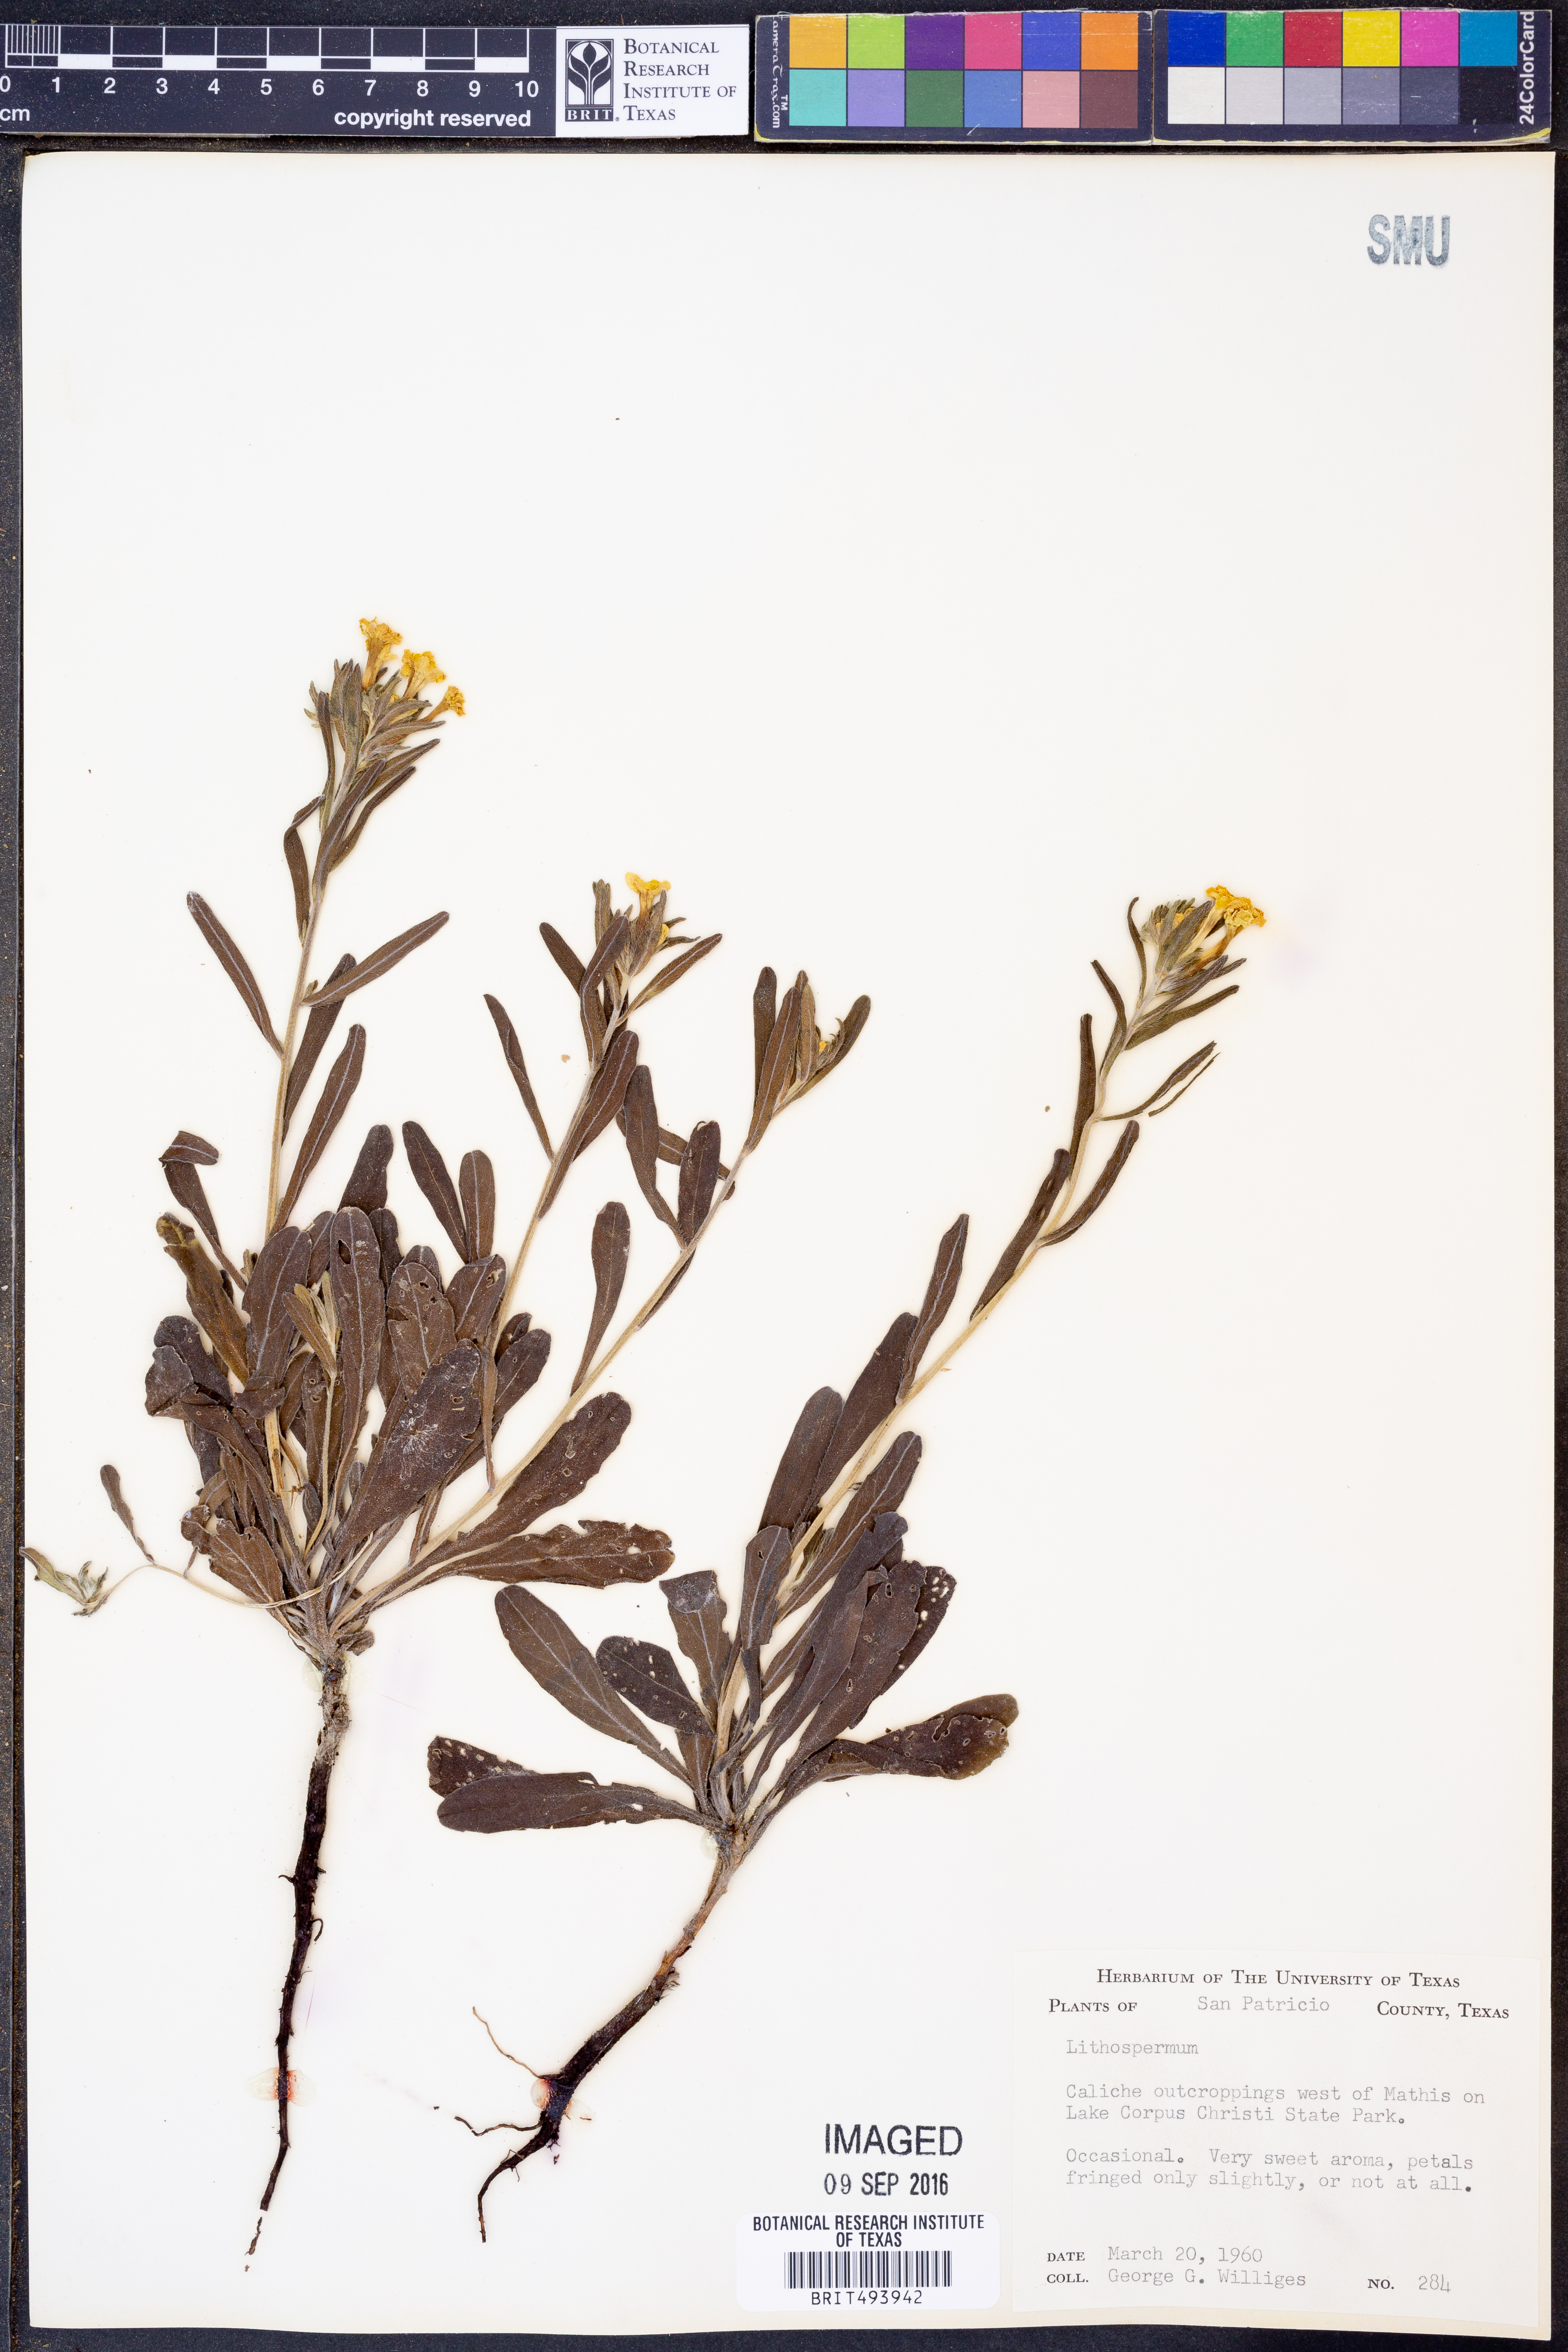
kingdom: Plantae
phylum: Tracheophyta
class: Magnoliopsida
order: Boraginales
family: Boraginaceae
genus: Lithospermum
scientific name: Lithospermum
